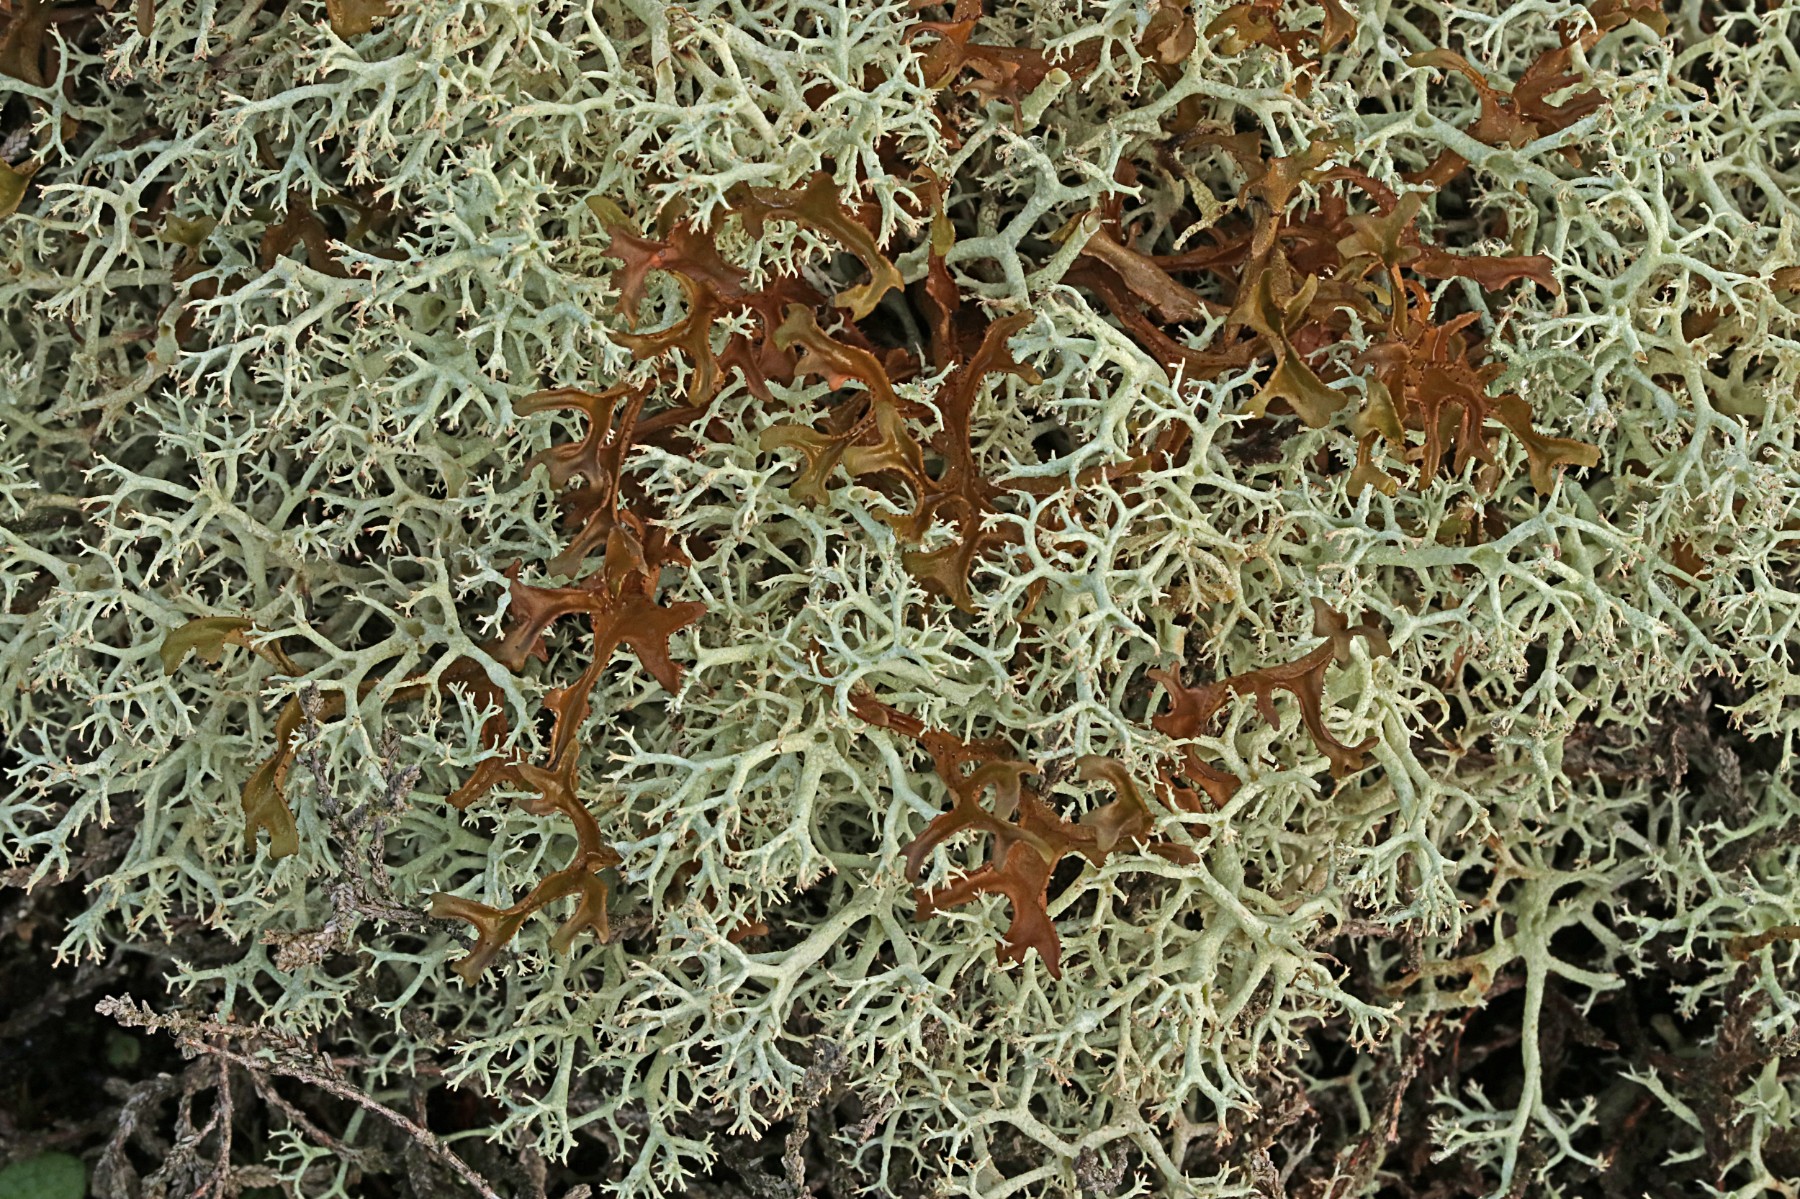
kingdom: Fungi
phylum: Ascomycota
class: Lecanoromycetes
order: Lecanorales
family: Parmeliaceae
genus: Cetraria
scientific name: Cetraria islandica
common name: islandsk kruslav
